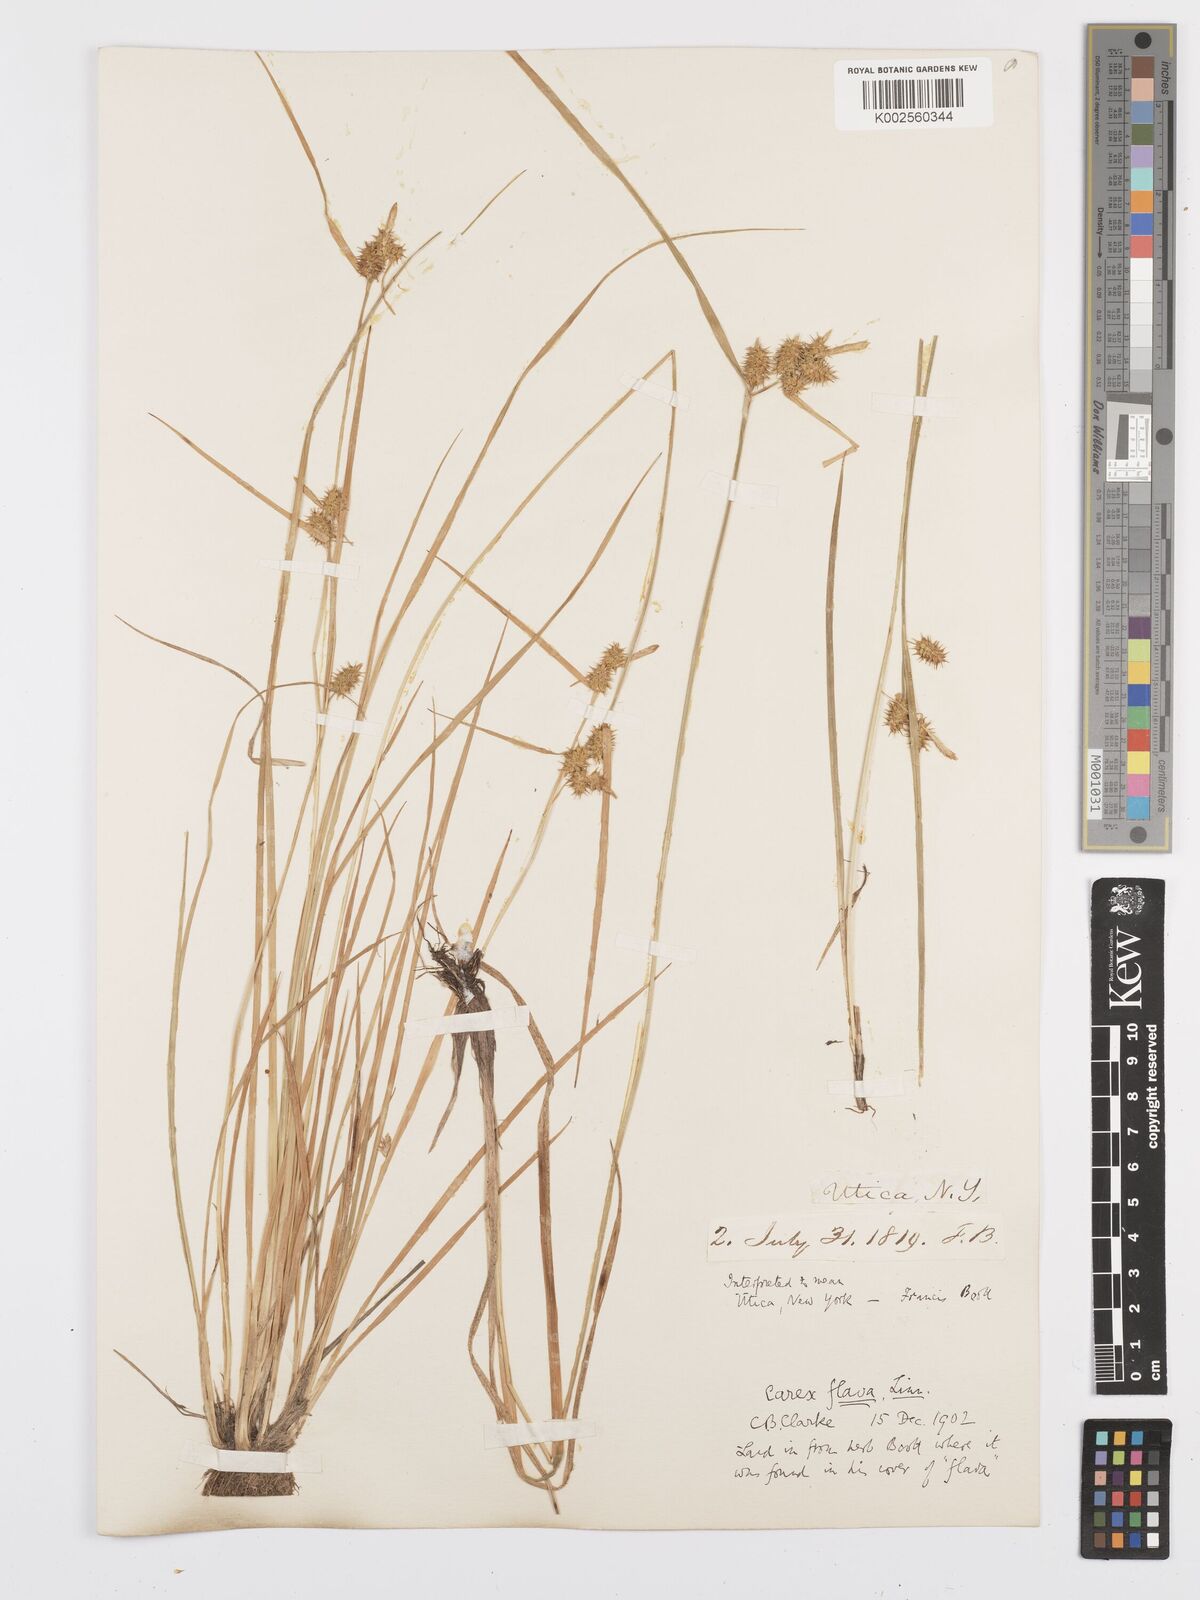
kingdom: Plantae
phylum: Tracheophyta
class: Liliopsida
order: Poales
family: Cyperaceae
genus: Carex
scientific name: Carex flava
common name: Large yellow-sedge
